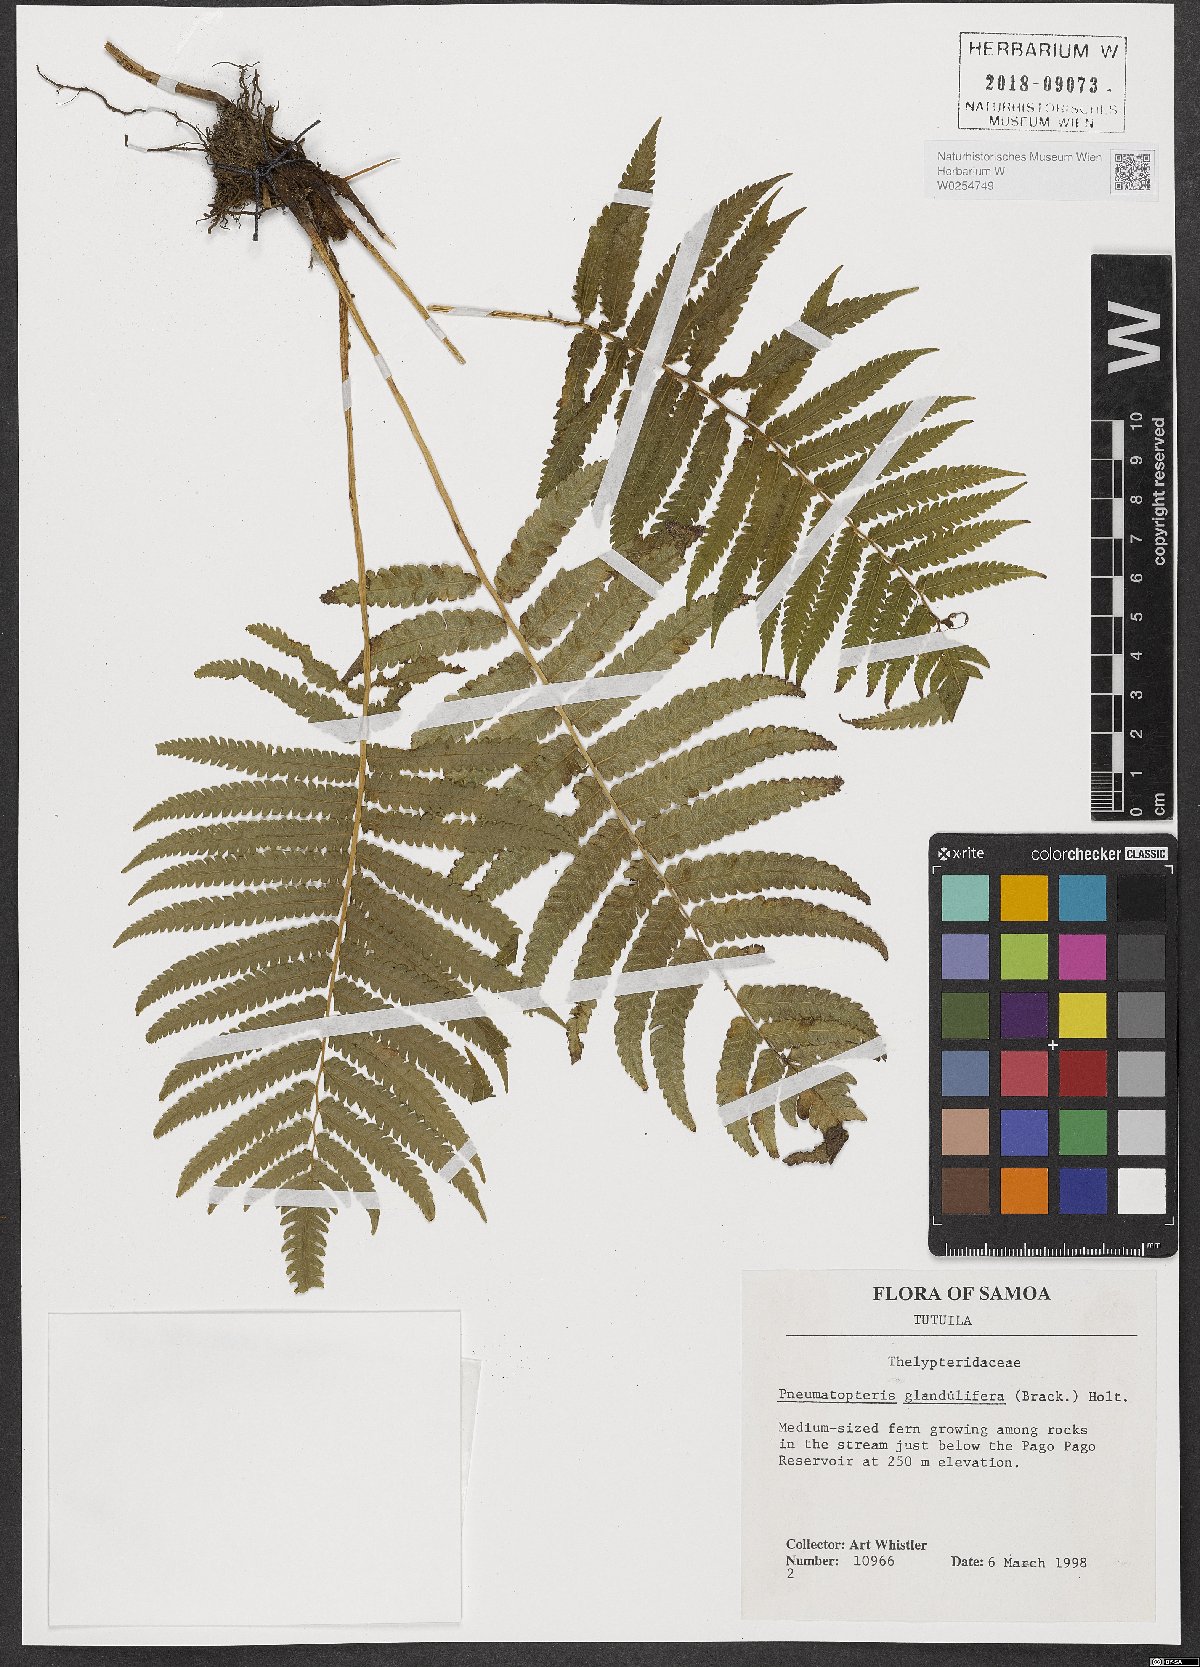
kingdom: Plantae
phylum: Tracheophyta
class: Polypodiopsida
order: Polypodiales
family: Thelypteridaceae
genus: Pneumatopteris
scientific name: Pneumatopteris glandulifera
